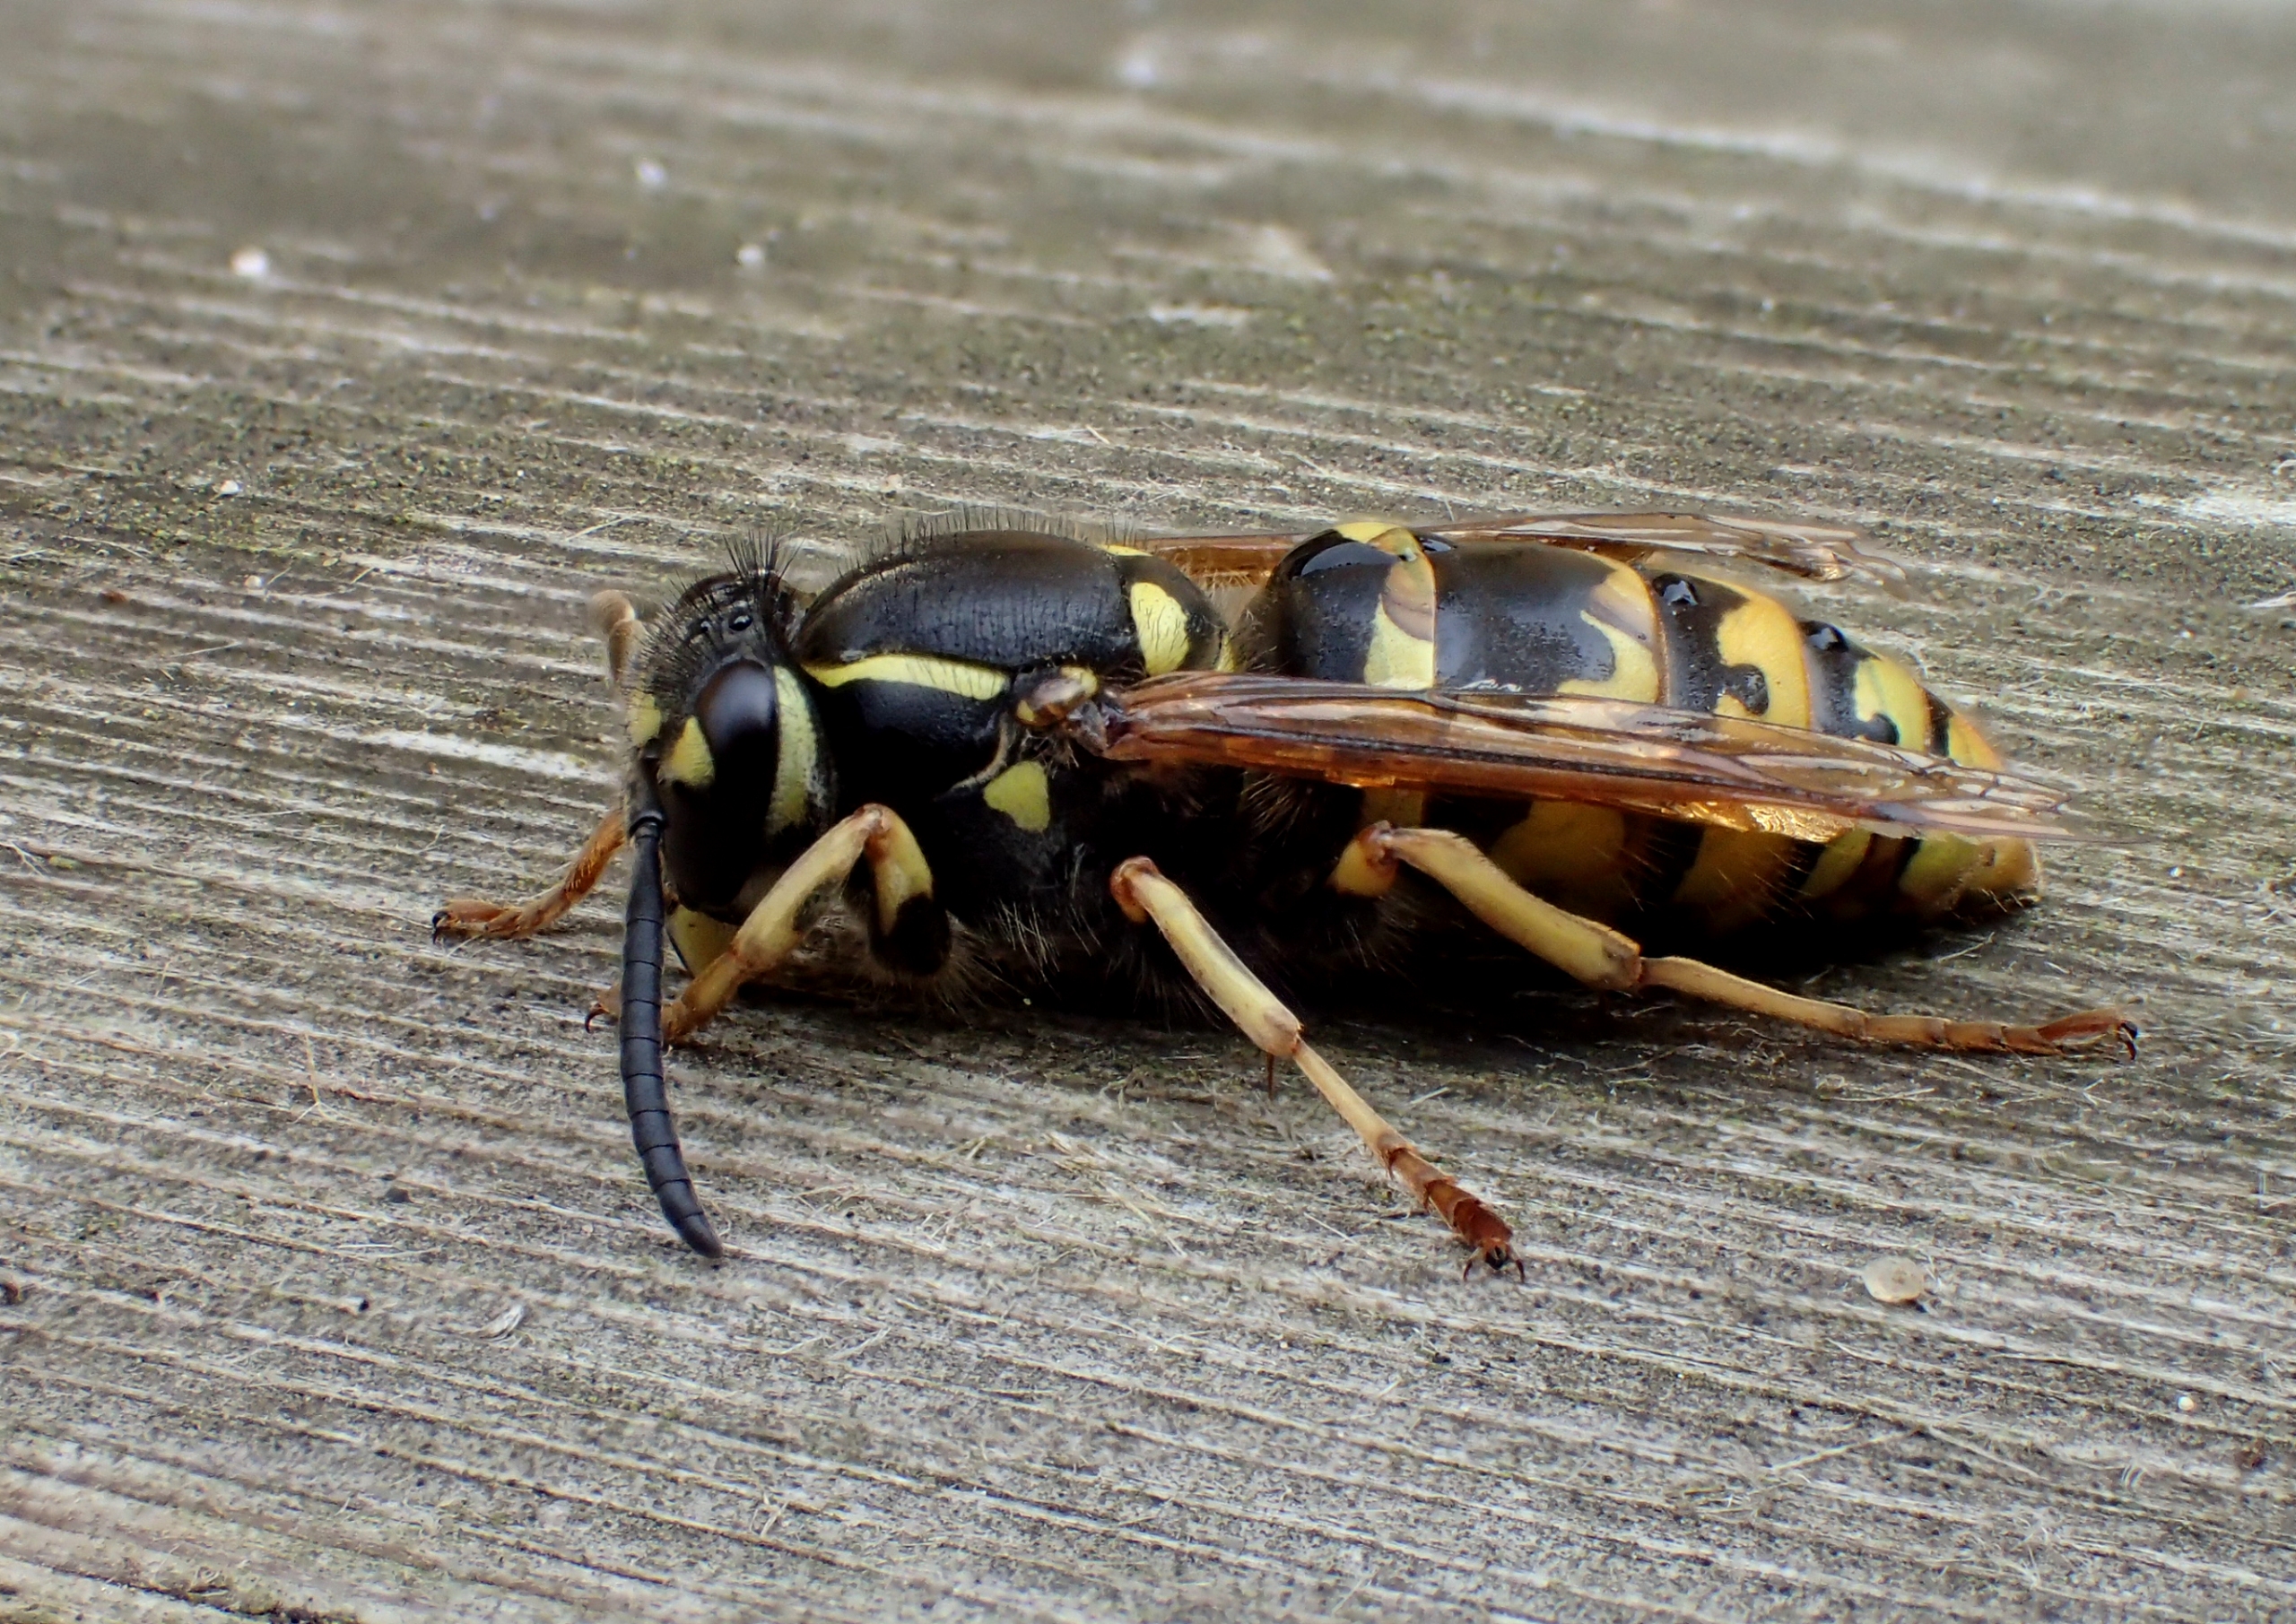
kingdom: Animalia
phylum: Arthropoda
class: Insecta
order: Hymenoptera
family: Vespidae
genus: Vespula
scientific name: Vespula vulgaris
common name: Almindelig gedehams
